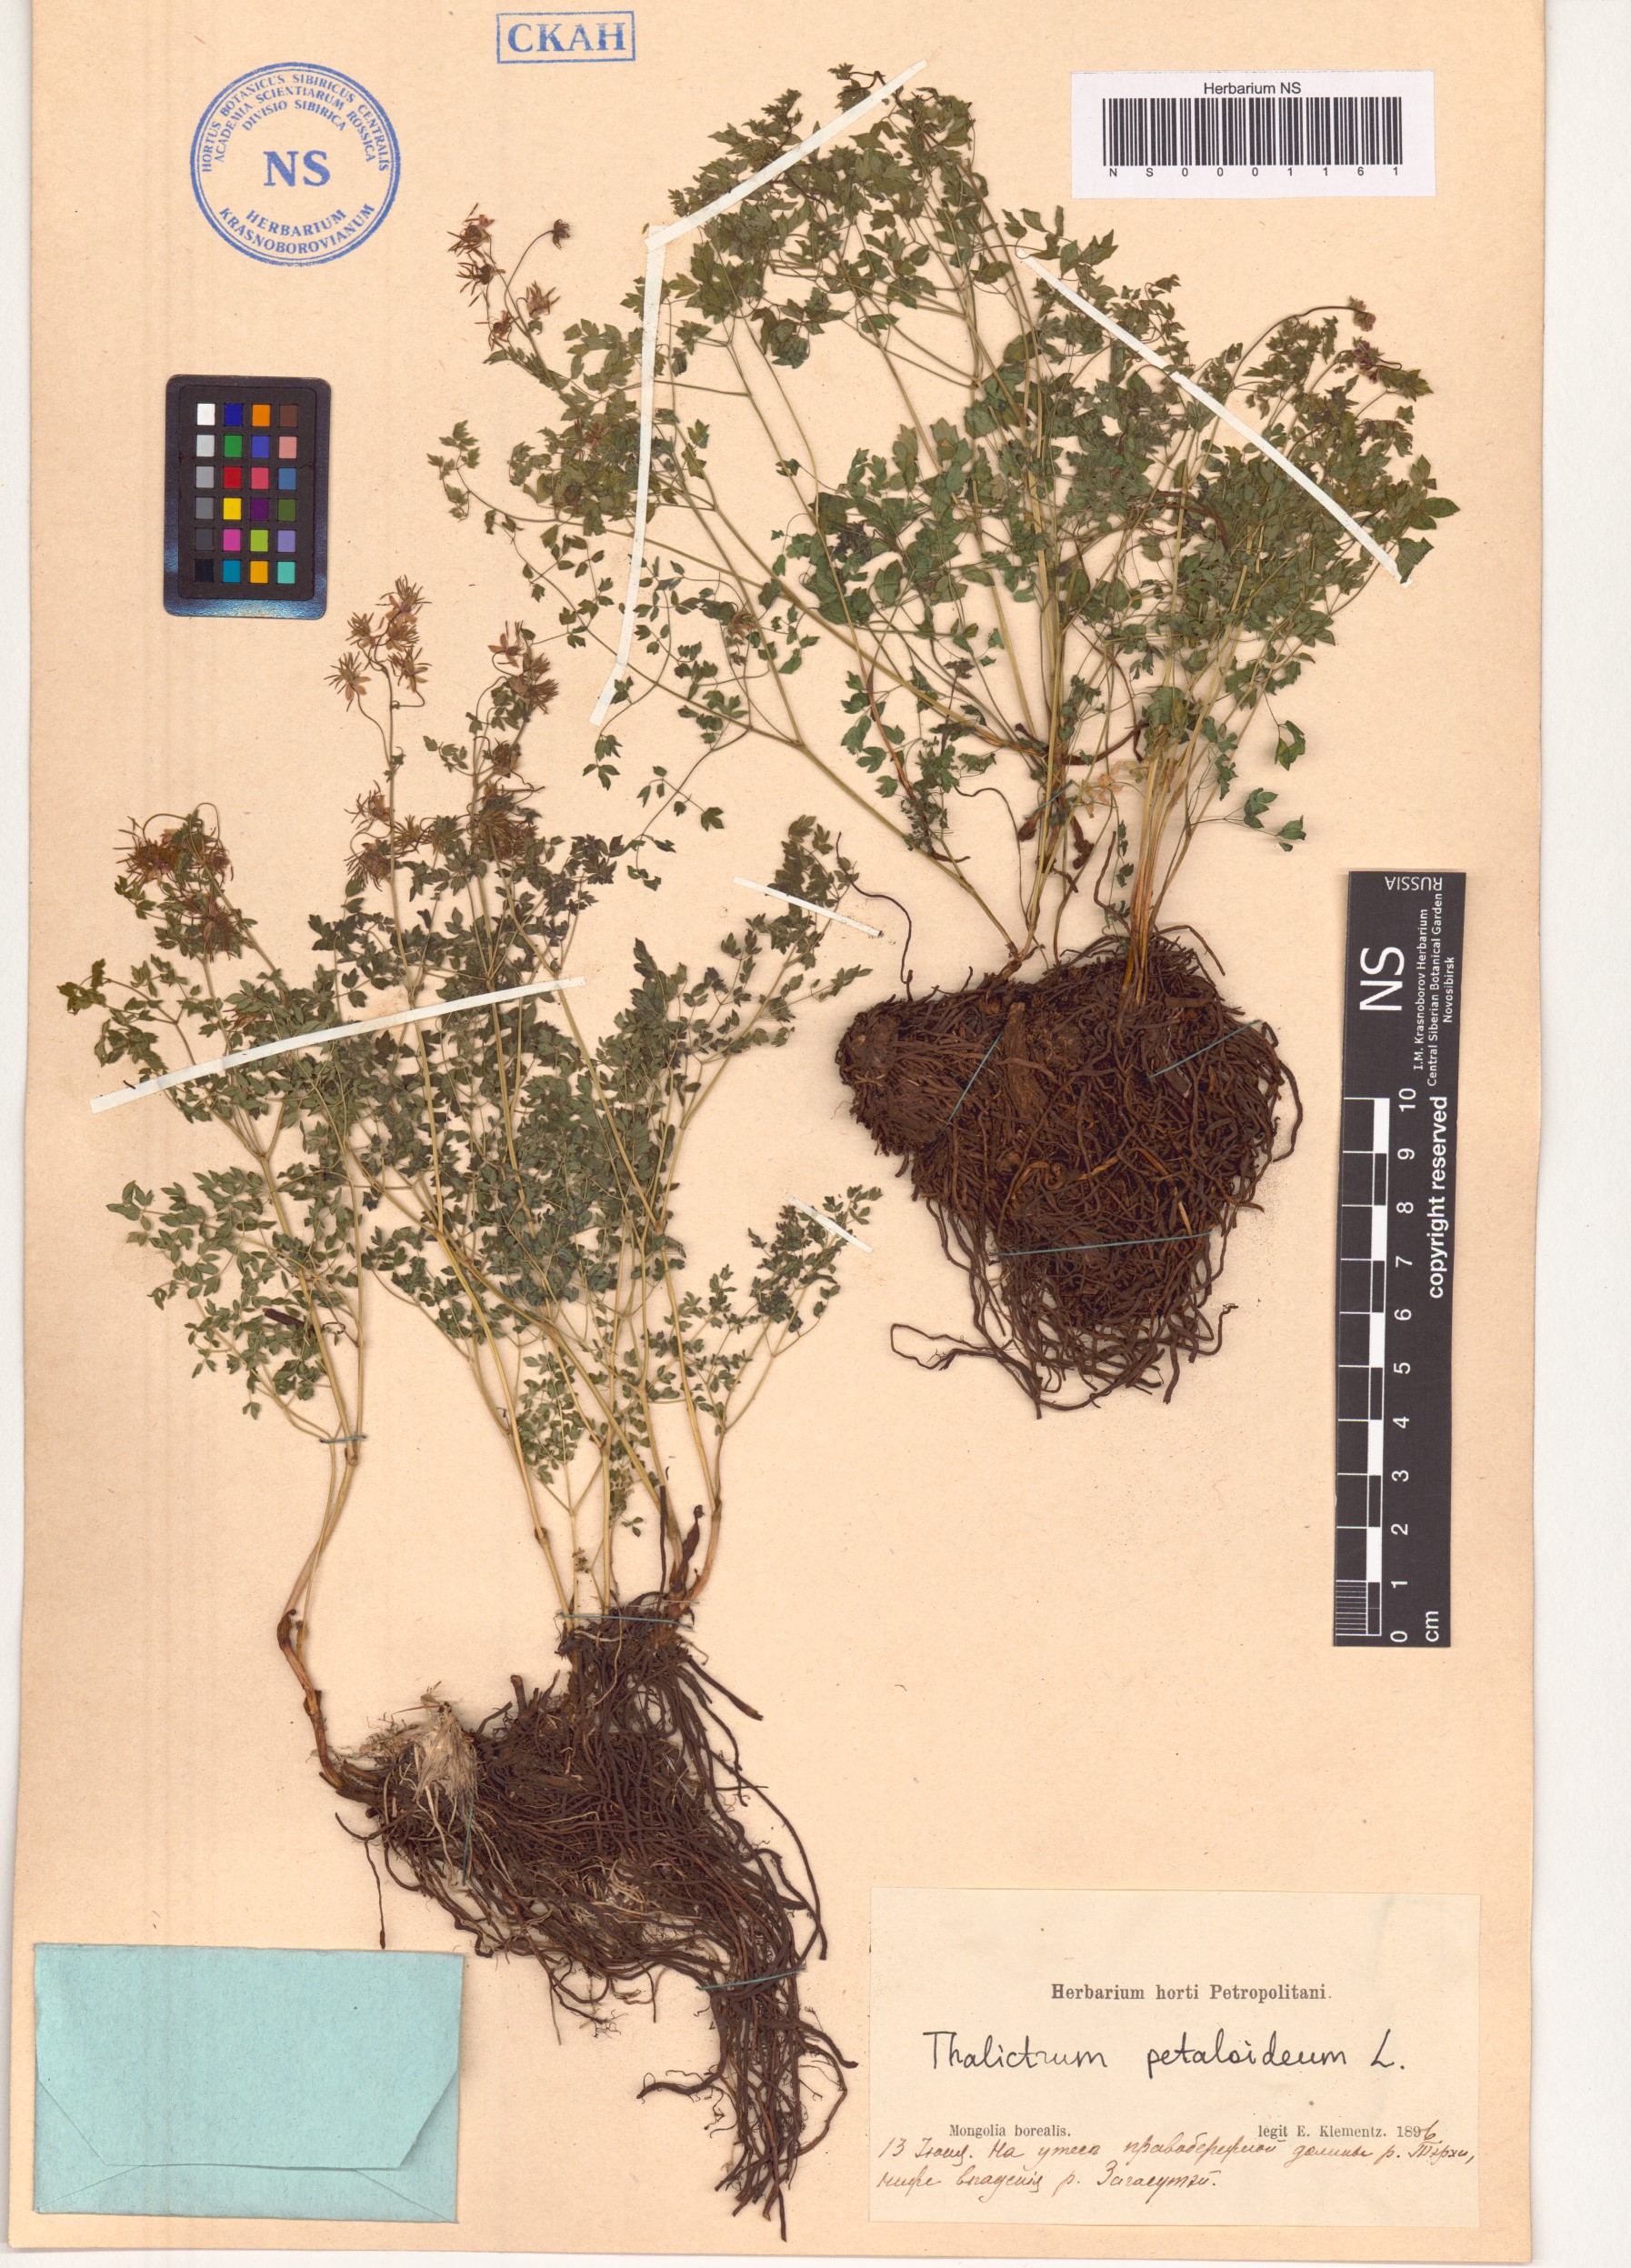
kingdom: Plantae
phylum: Tracheophyta
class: Magnoliopsida
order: Ranunculales
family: Ranunculaceae
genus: Thalictrum
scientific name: Thalictrum petaloideum
